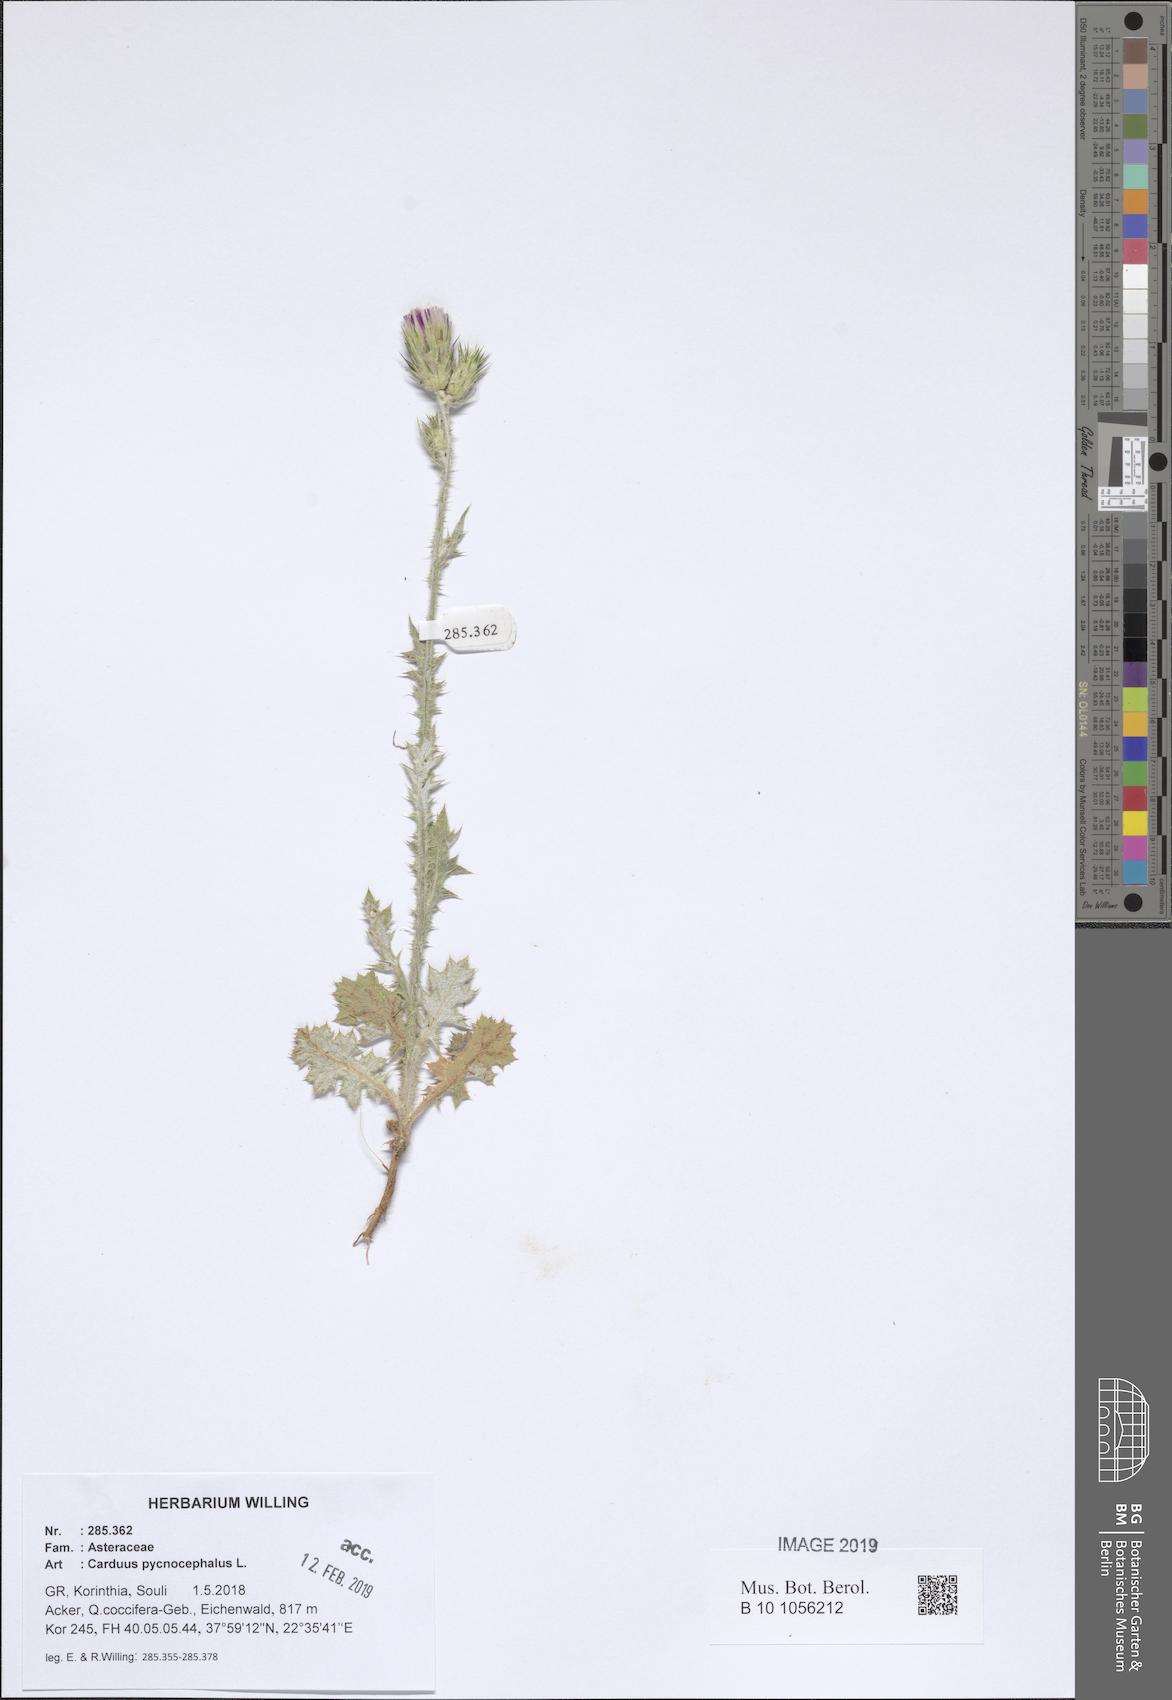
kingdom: Plantae
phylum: Tracheophyta
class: Magnoliopsida
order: Asterales
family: Asteraceae
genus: Carduus
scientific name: Carduus pycnocephalus
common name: Plymouth thistle
